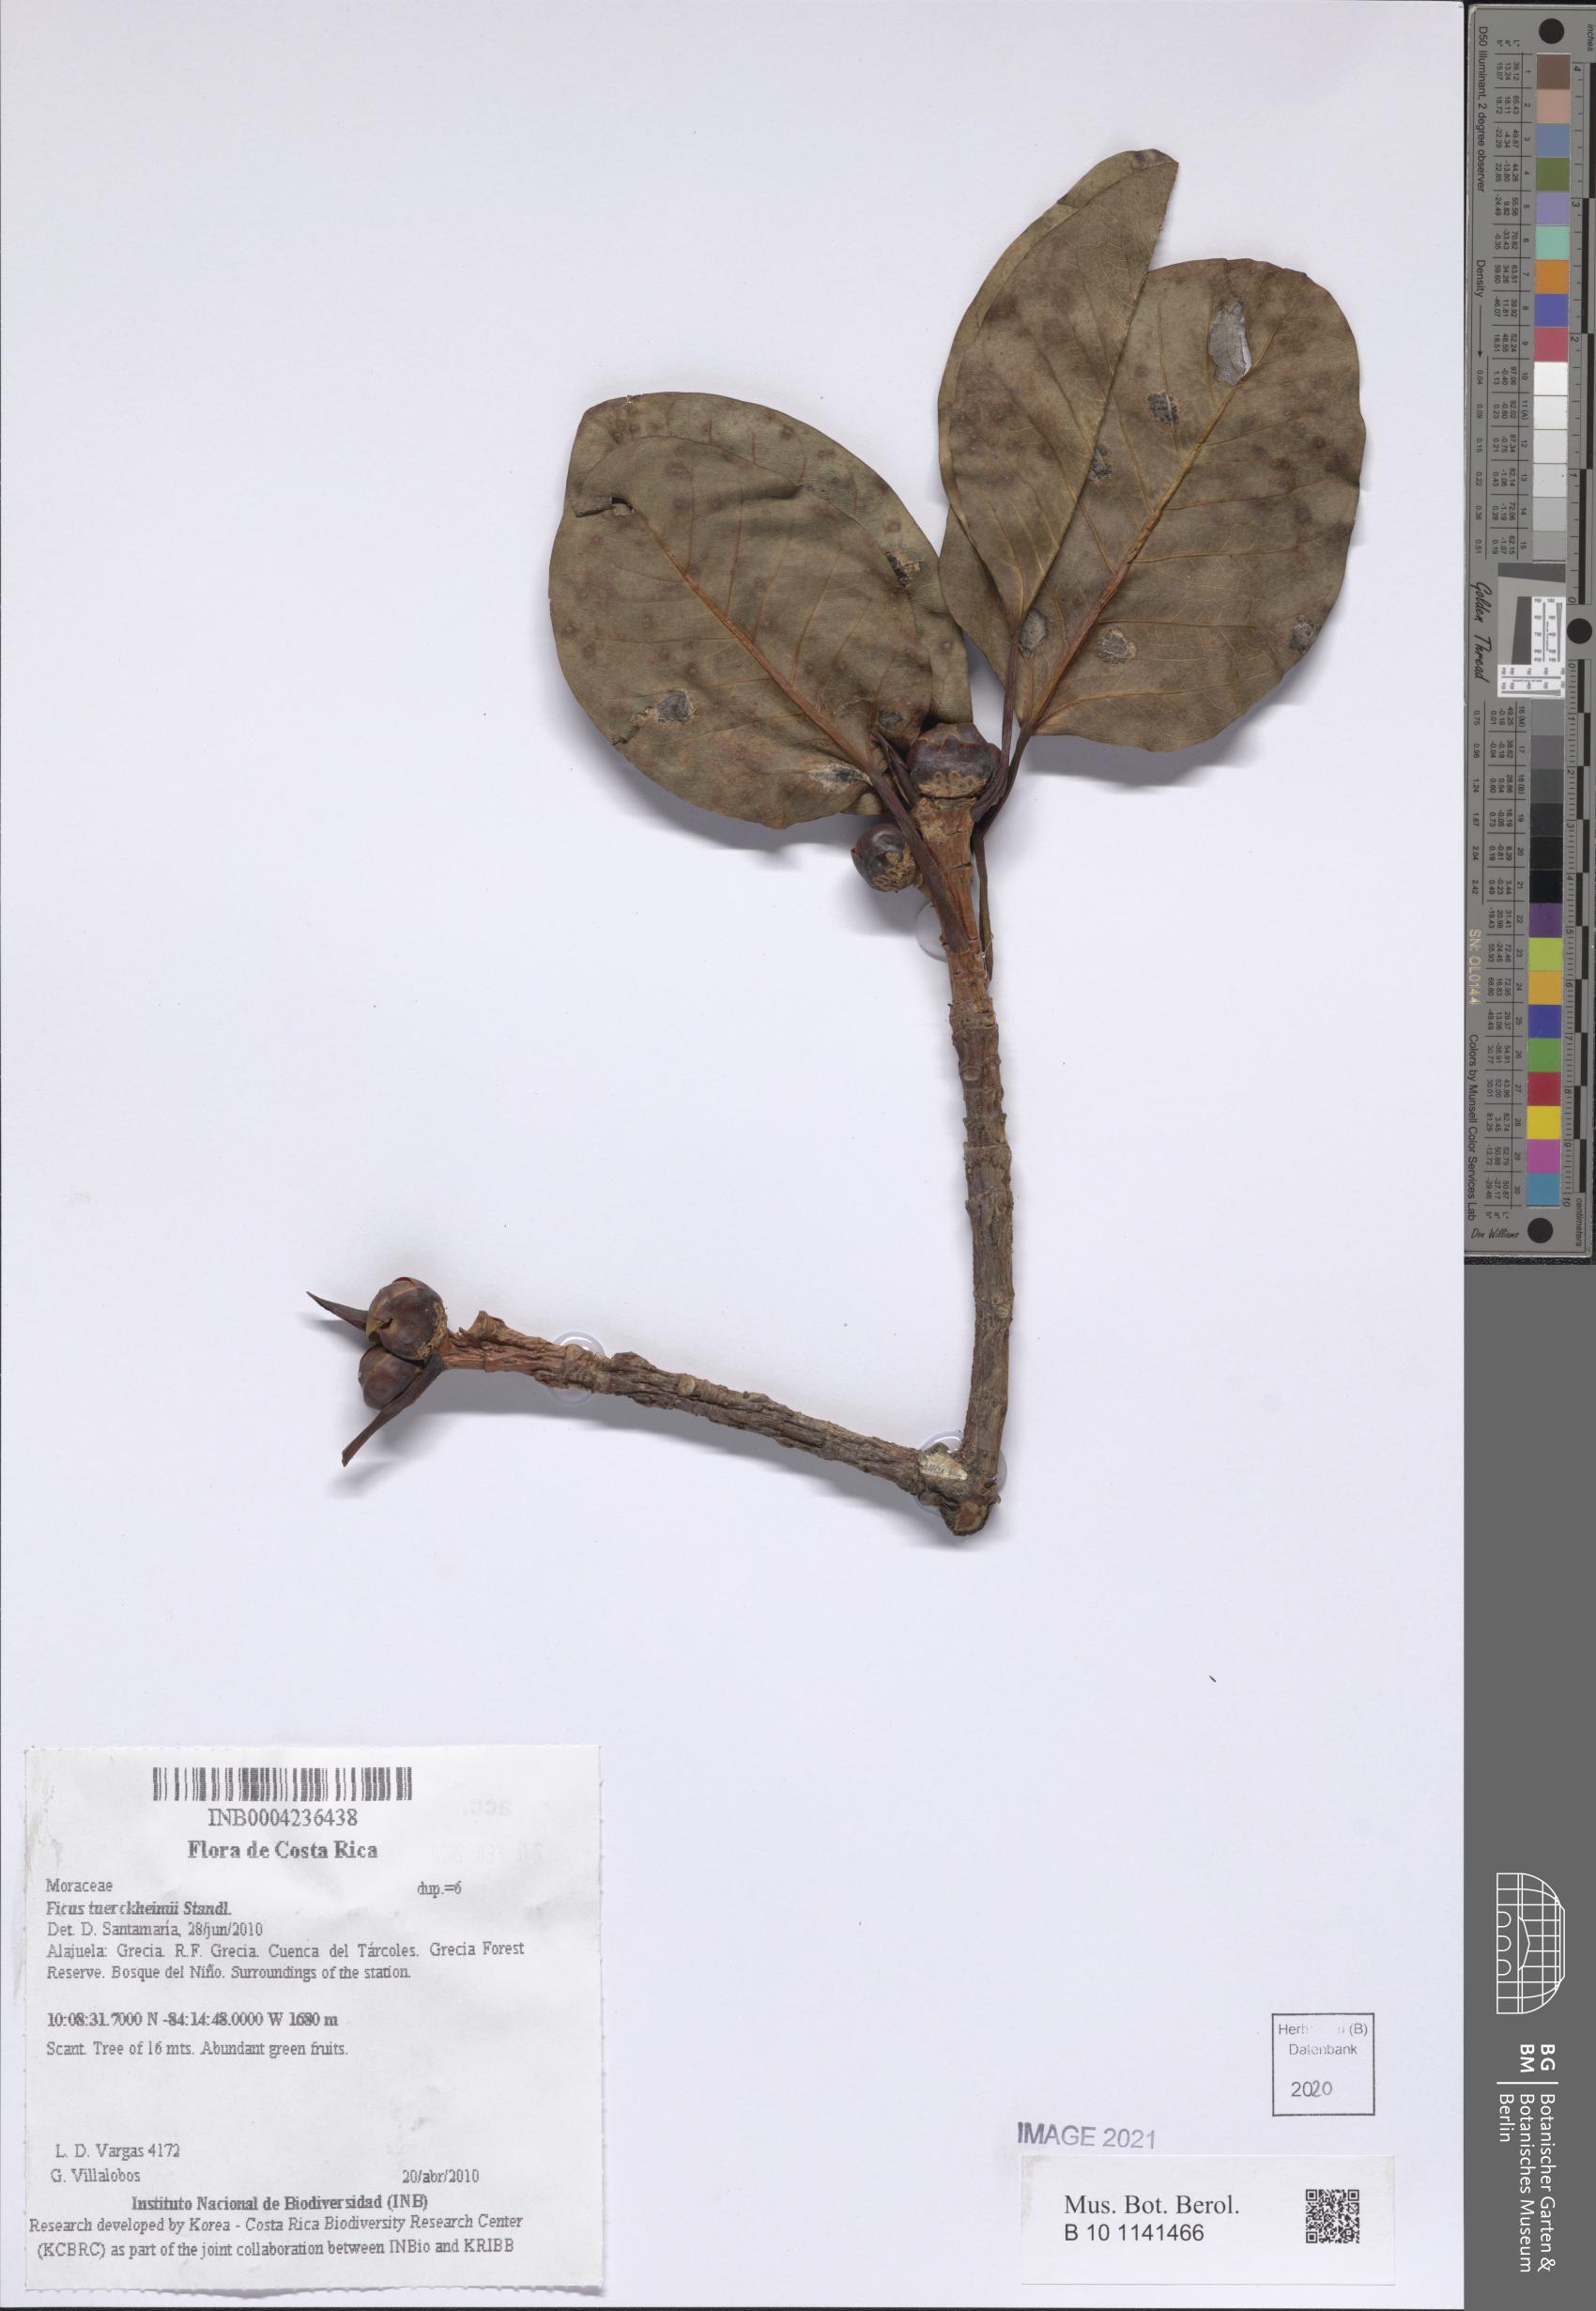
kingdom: Plantae
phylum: Tracheophyta
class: Magnoliopsida
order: Rosales
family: Moraceae
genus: Ficus
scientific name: Ficus aurea
